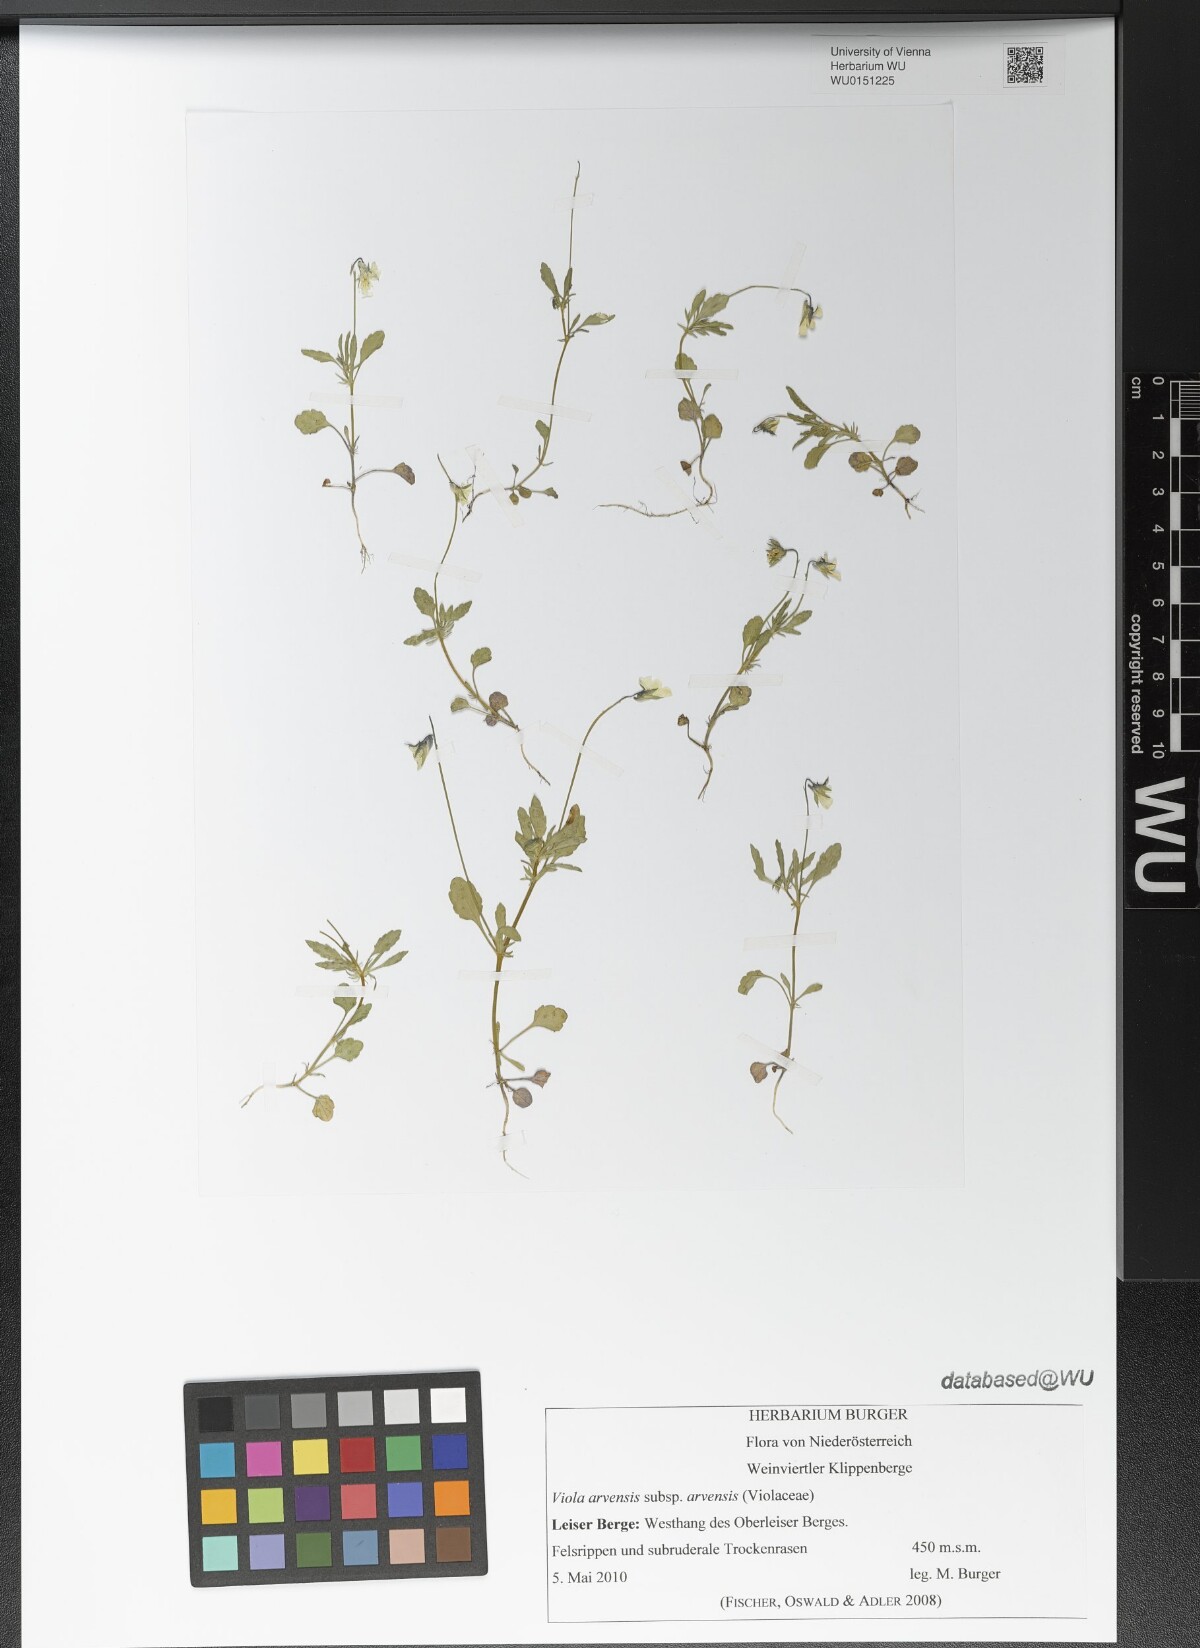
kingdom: Plantae
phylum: Tracheophyta
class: Magnoliopsida
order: Malpighiales
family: Violaceae
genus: Viola
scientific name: Viola arvensis
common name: Field pansy
